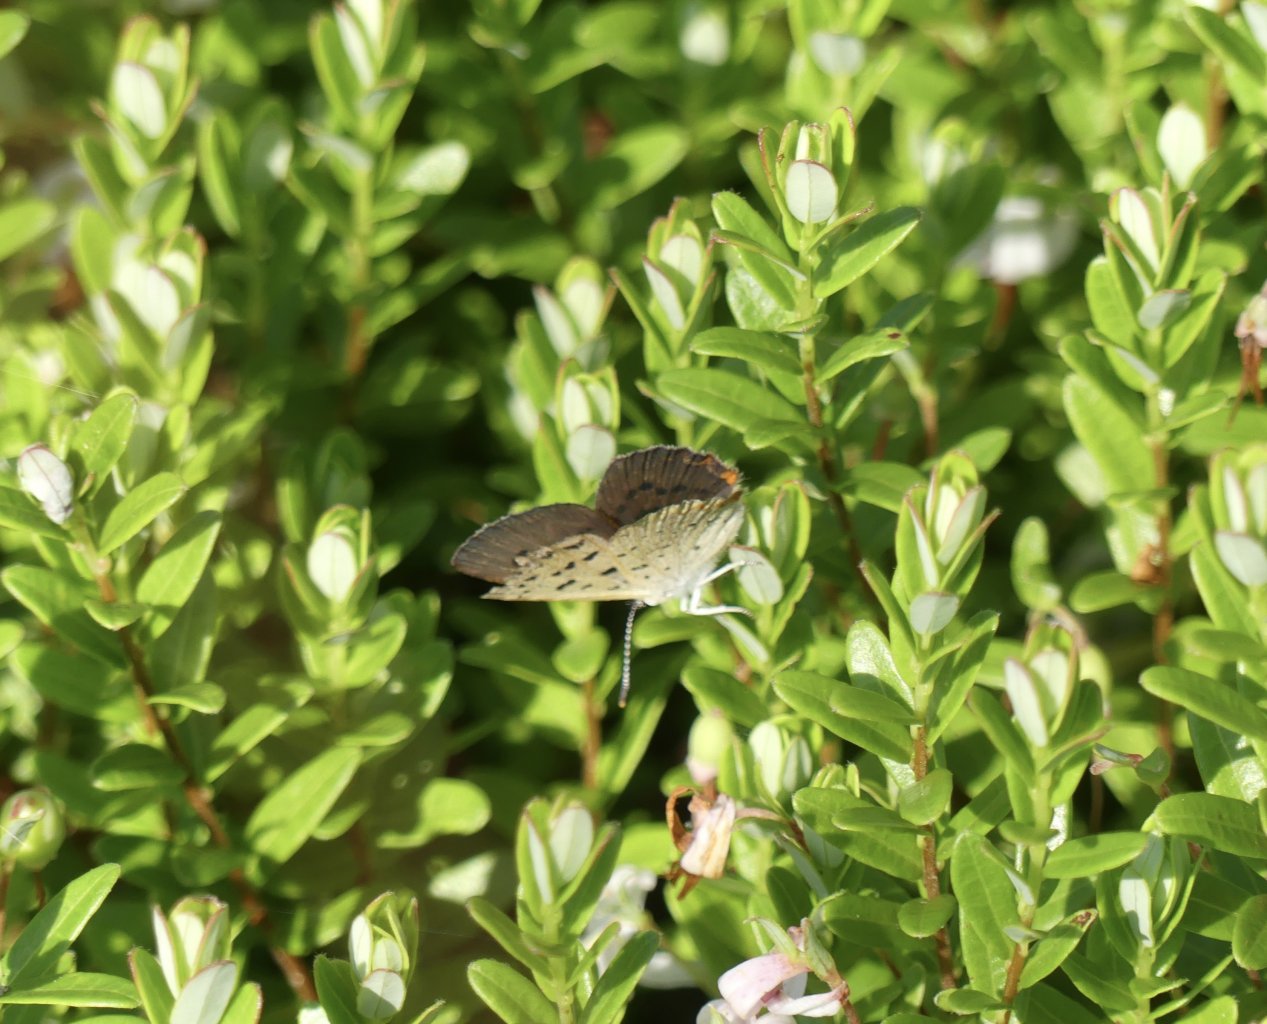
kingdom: Animalia
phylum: Arthropoda
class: Insecta
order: Lepidoptera
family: Sesiidae
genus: Sesia
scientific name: Sesia Lycaena epixanthe
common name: Bog Copper
